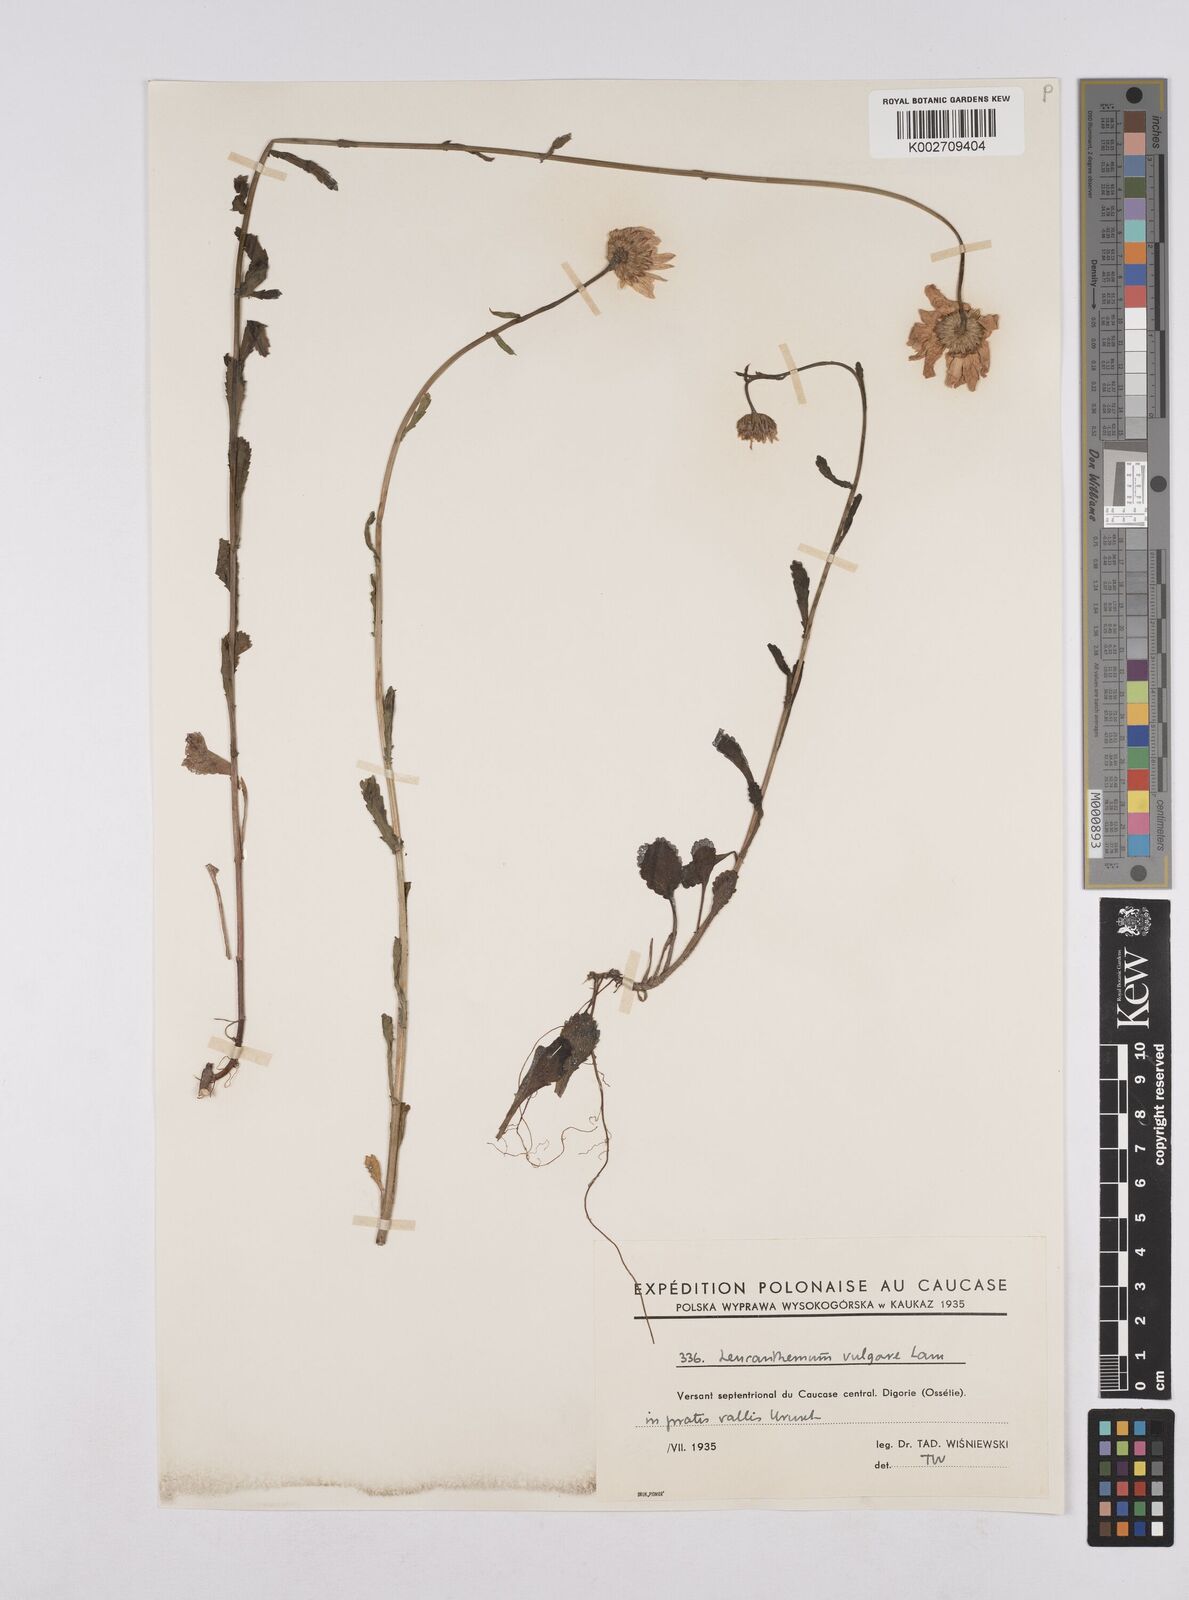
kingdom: Plantae
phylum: Tracheophyta
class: Magnoliopsida
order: Asterales
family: Asteraceae
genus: Leucanthemum
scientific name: Leucanthemum vulgare
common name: Oxeye daisy
